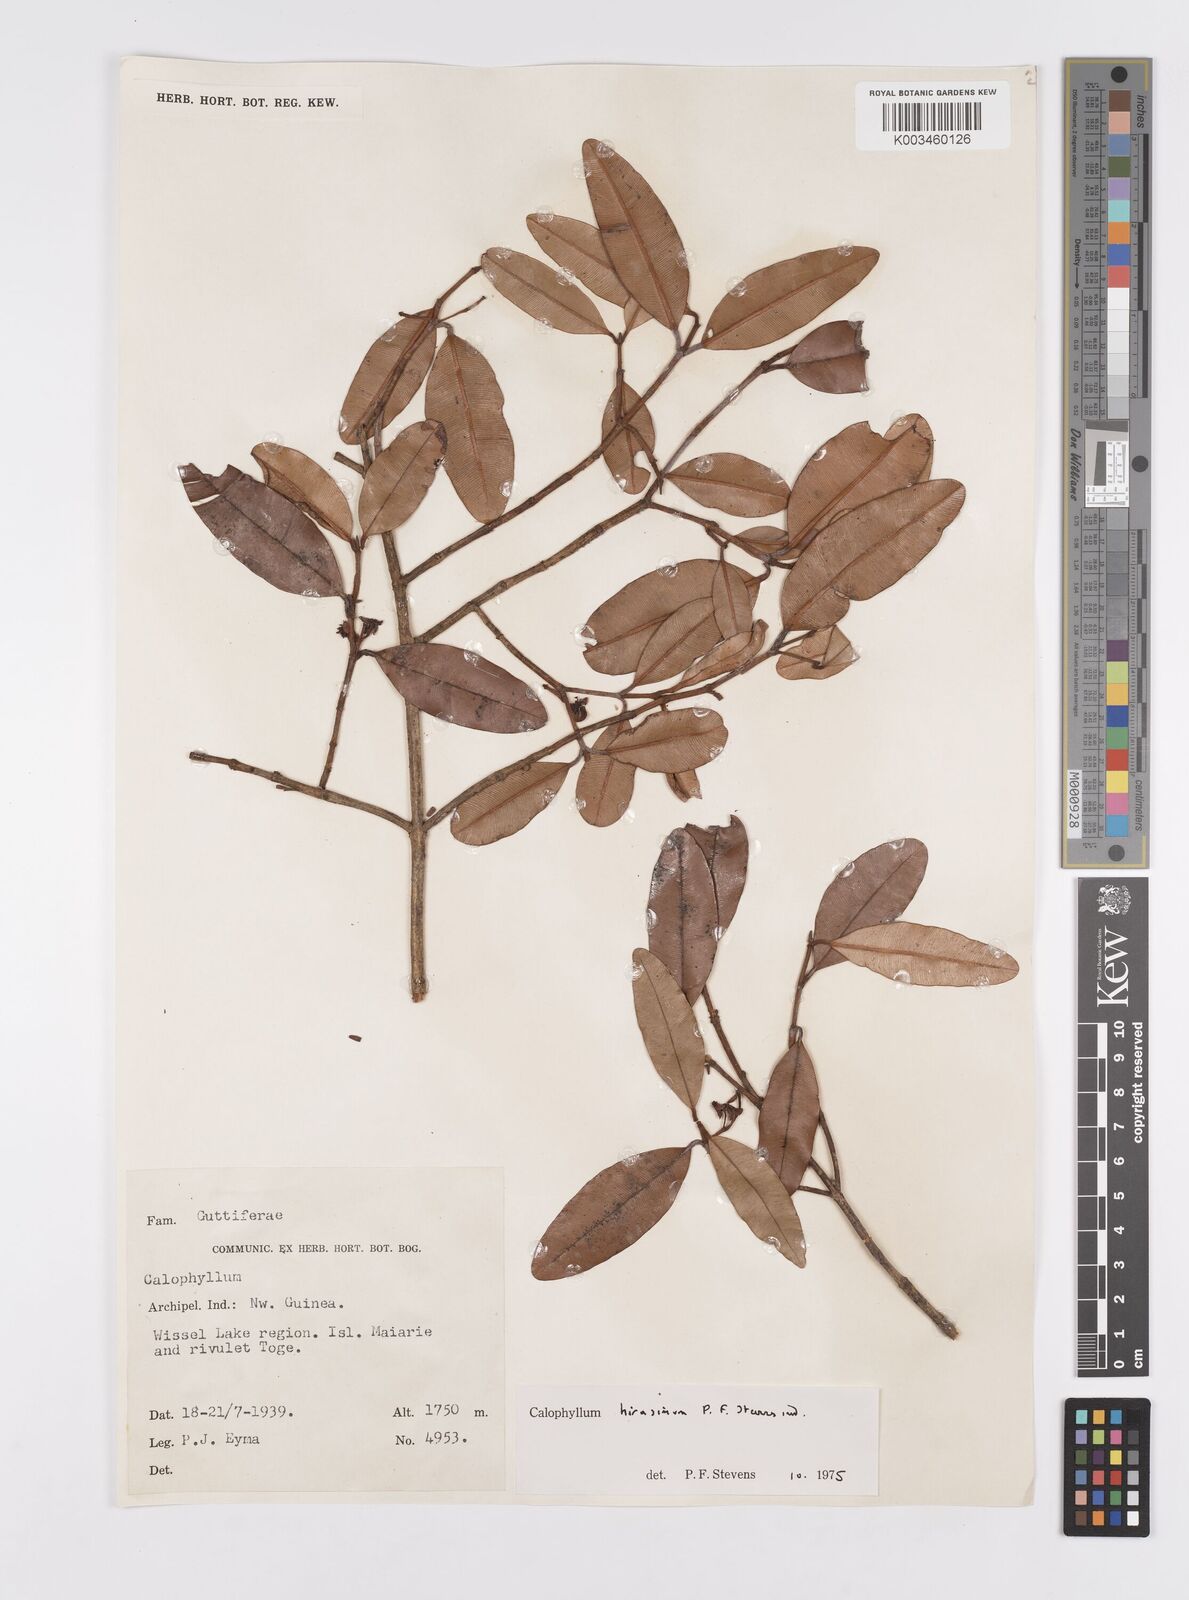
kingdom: Plantae
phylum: Tracheophyta
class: Magnoliopsida
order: Malpighiales
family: Calophyllaceae
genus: Calophyllum
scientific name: Calophyllum hirasimum
